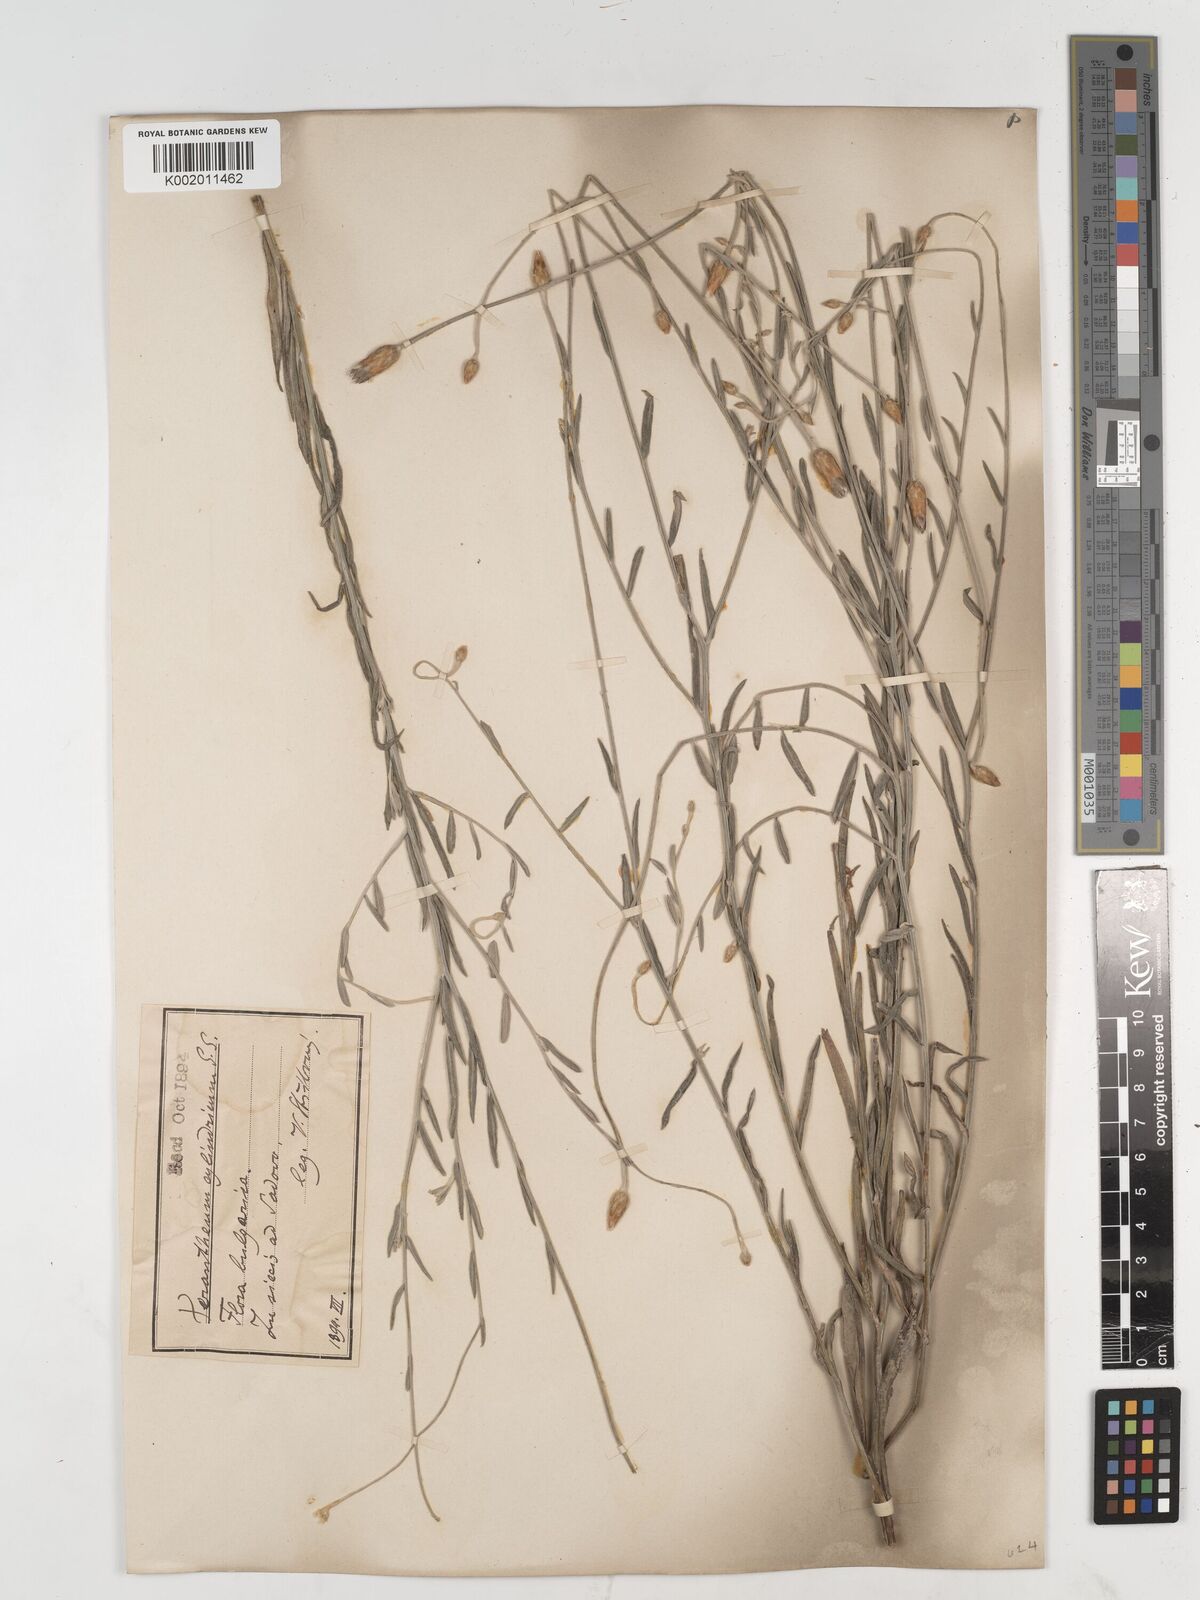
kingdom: Plantae
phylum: Tracheophyta
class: Magnoliopsida
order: Asterales
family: Asteraceae
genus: Xeranthemum
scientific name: Xeranthemum cylindraceum
